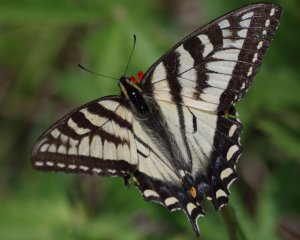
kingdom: Animalia
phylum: Arthropoda
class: Insecta
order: Lepidoptera
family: Papilionidae
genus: Pterourus
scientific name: Pterourus canadensis
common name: Canadian Tiger Swallowtail
